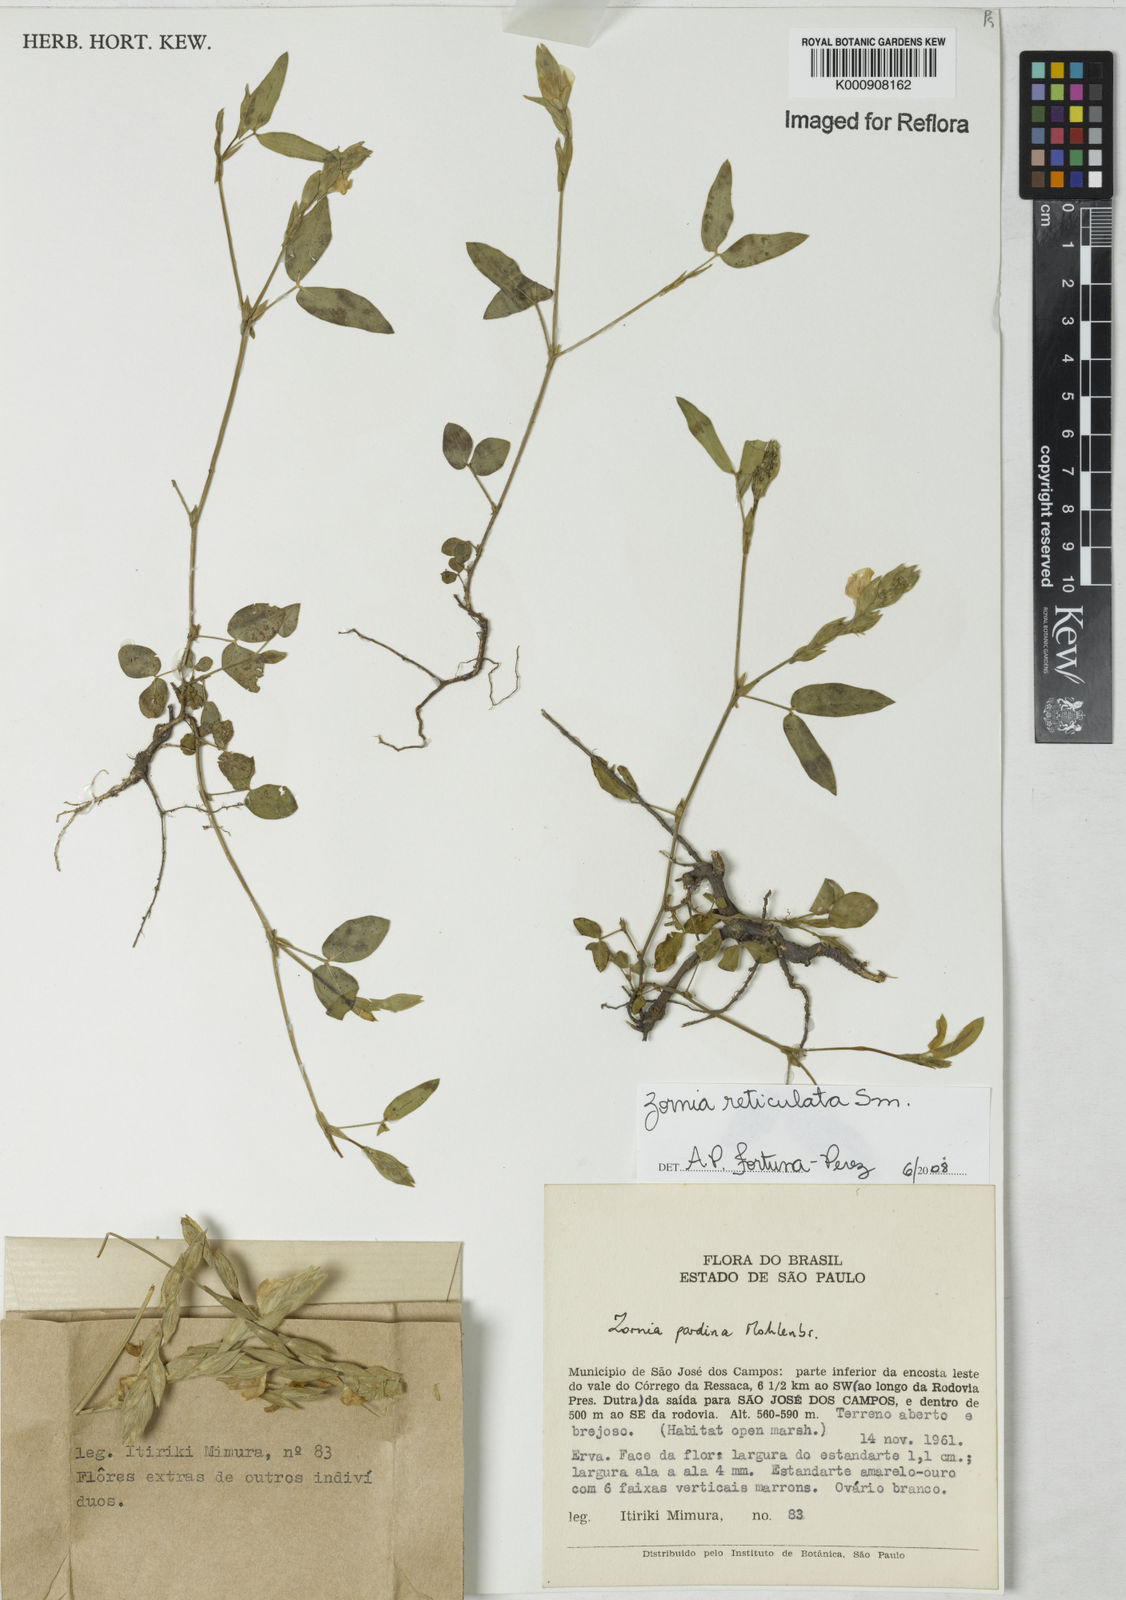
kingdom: Plantae
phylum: Tracheophyta
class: Magnoliopsida
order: Fabales
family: Fabaceae
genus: Zornia
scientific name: Zornia reticulata
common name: Reticulate viperina
